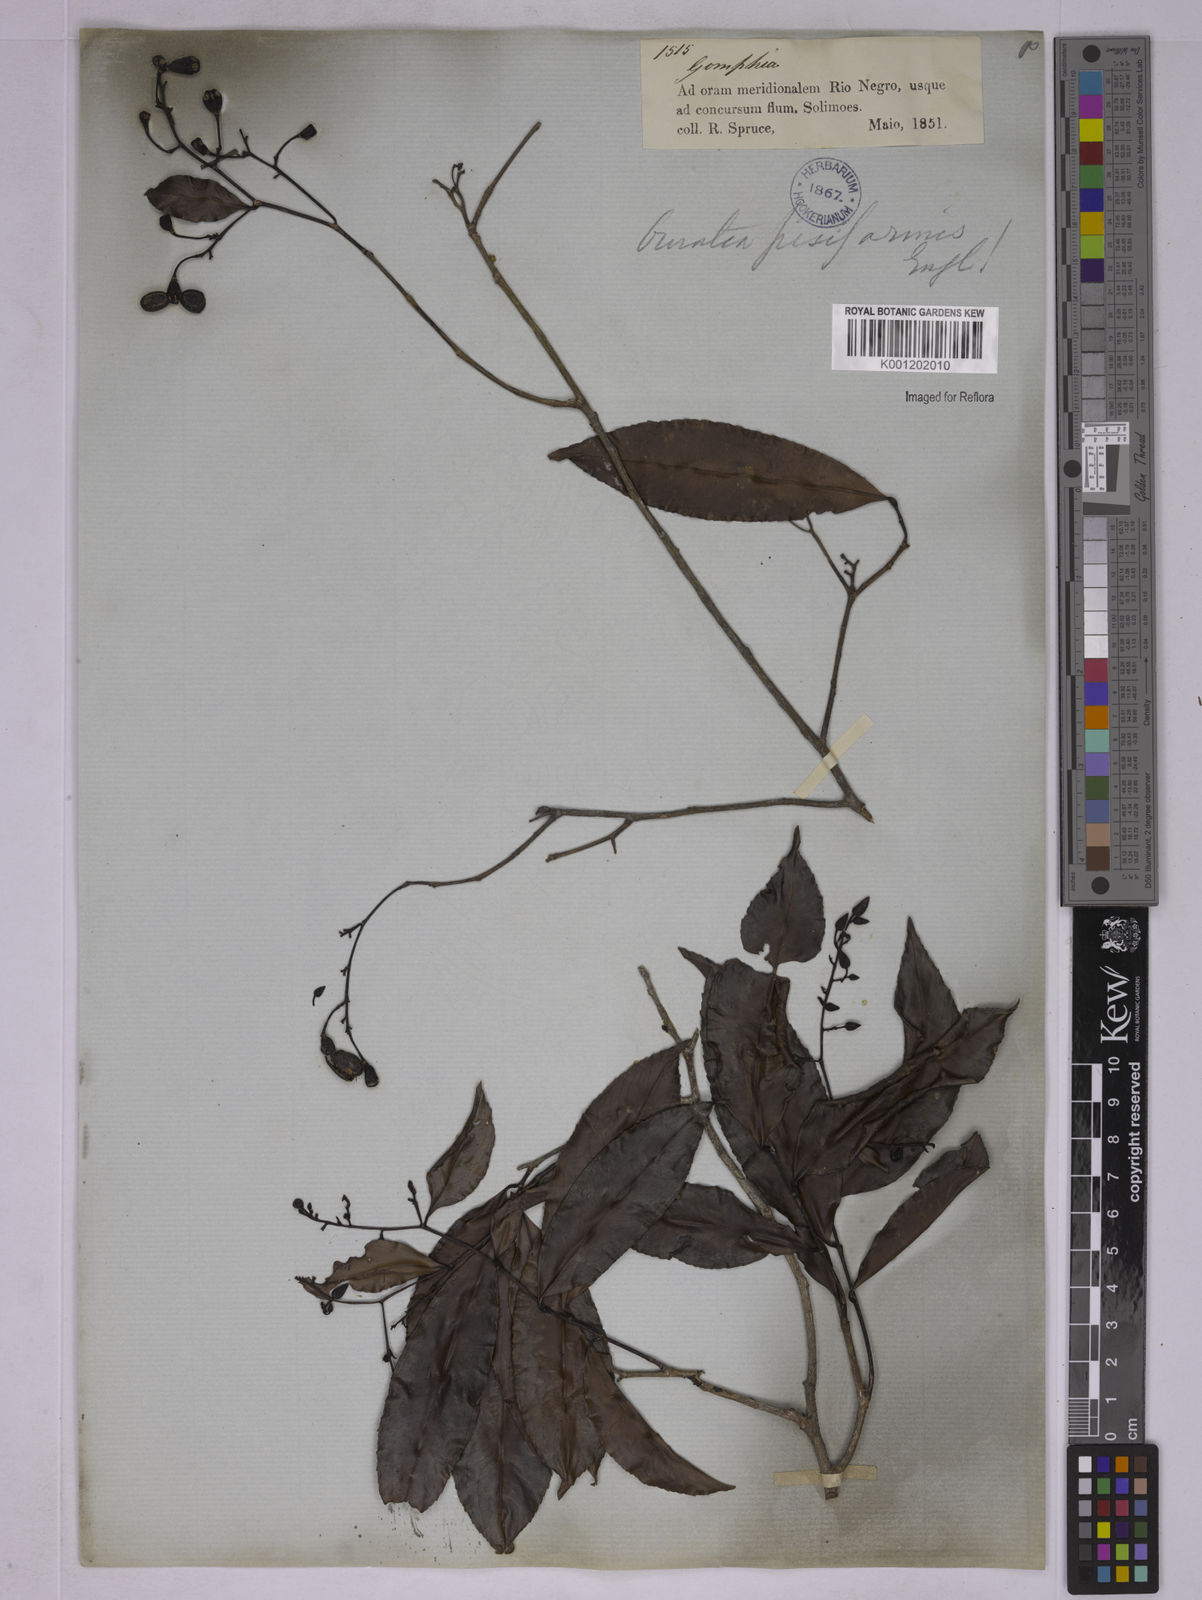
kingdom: Plantae
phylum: Tracheophyta
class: Magnoliopsida
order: Malpighiales
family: Ochnaceae
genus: Ouratea
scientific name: Ouratea pisiformis
